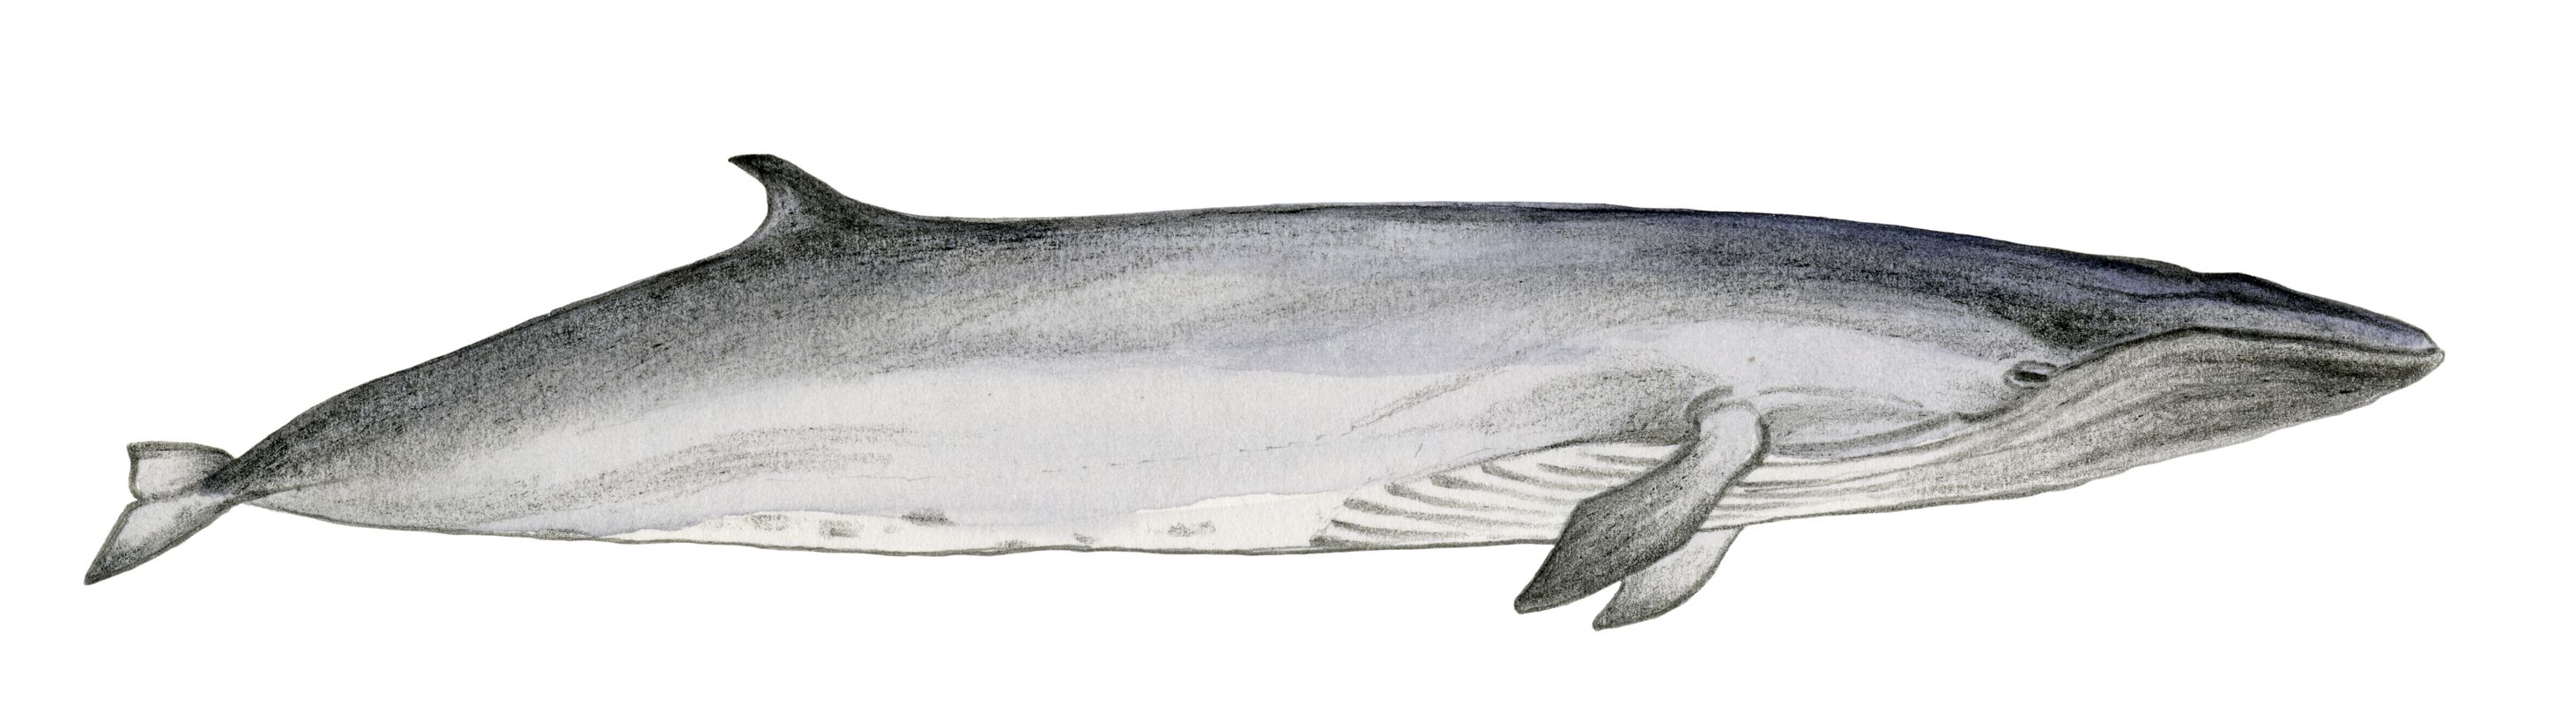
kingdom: Animalia
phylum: Chordata
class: Mammalia
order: Cetacea
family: Balaenopteridae
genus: Balaenoptera
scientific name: Balaenoptera edeni
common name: Bryde's whale
